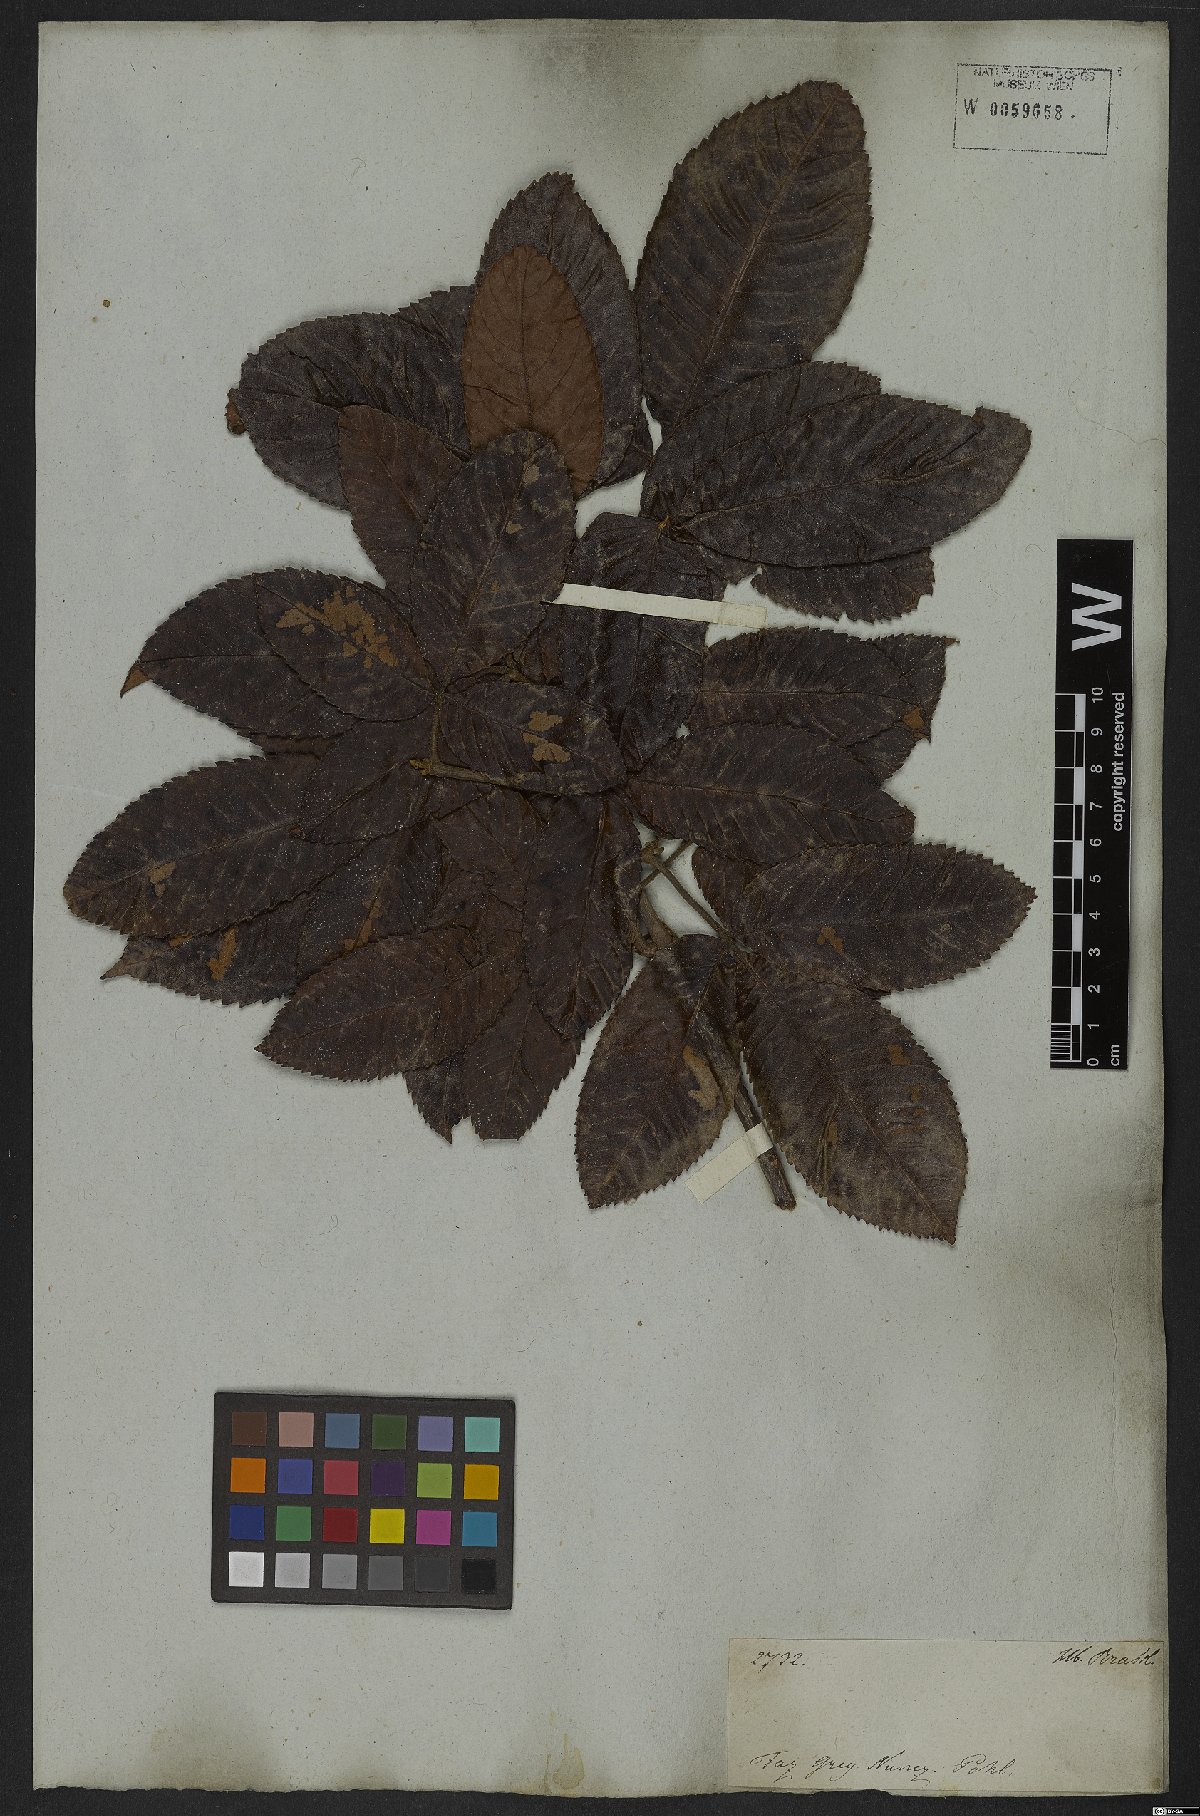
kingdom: Plantae
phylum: Tracheophyta
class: Magnoliopsida
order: Oxalidales
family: Cunoniaceae
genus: Lamanonia
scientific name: Lamanonia ternata
